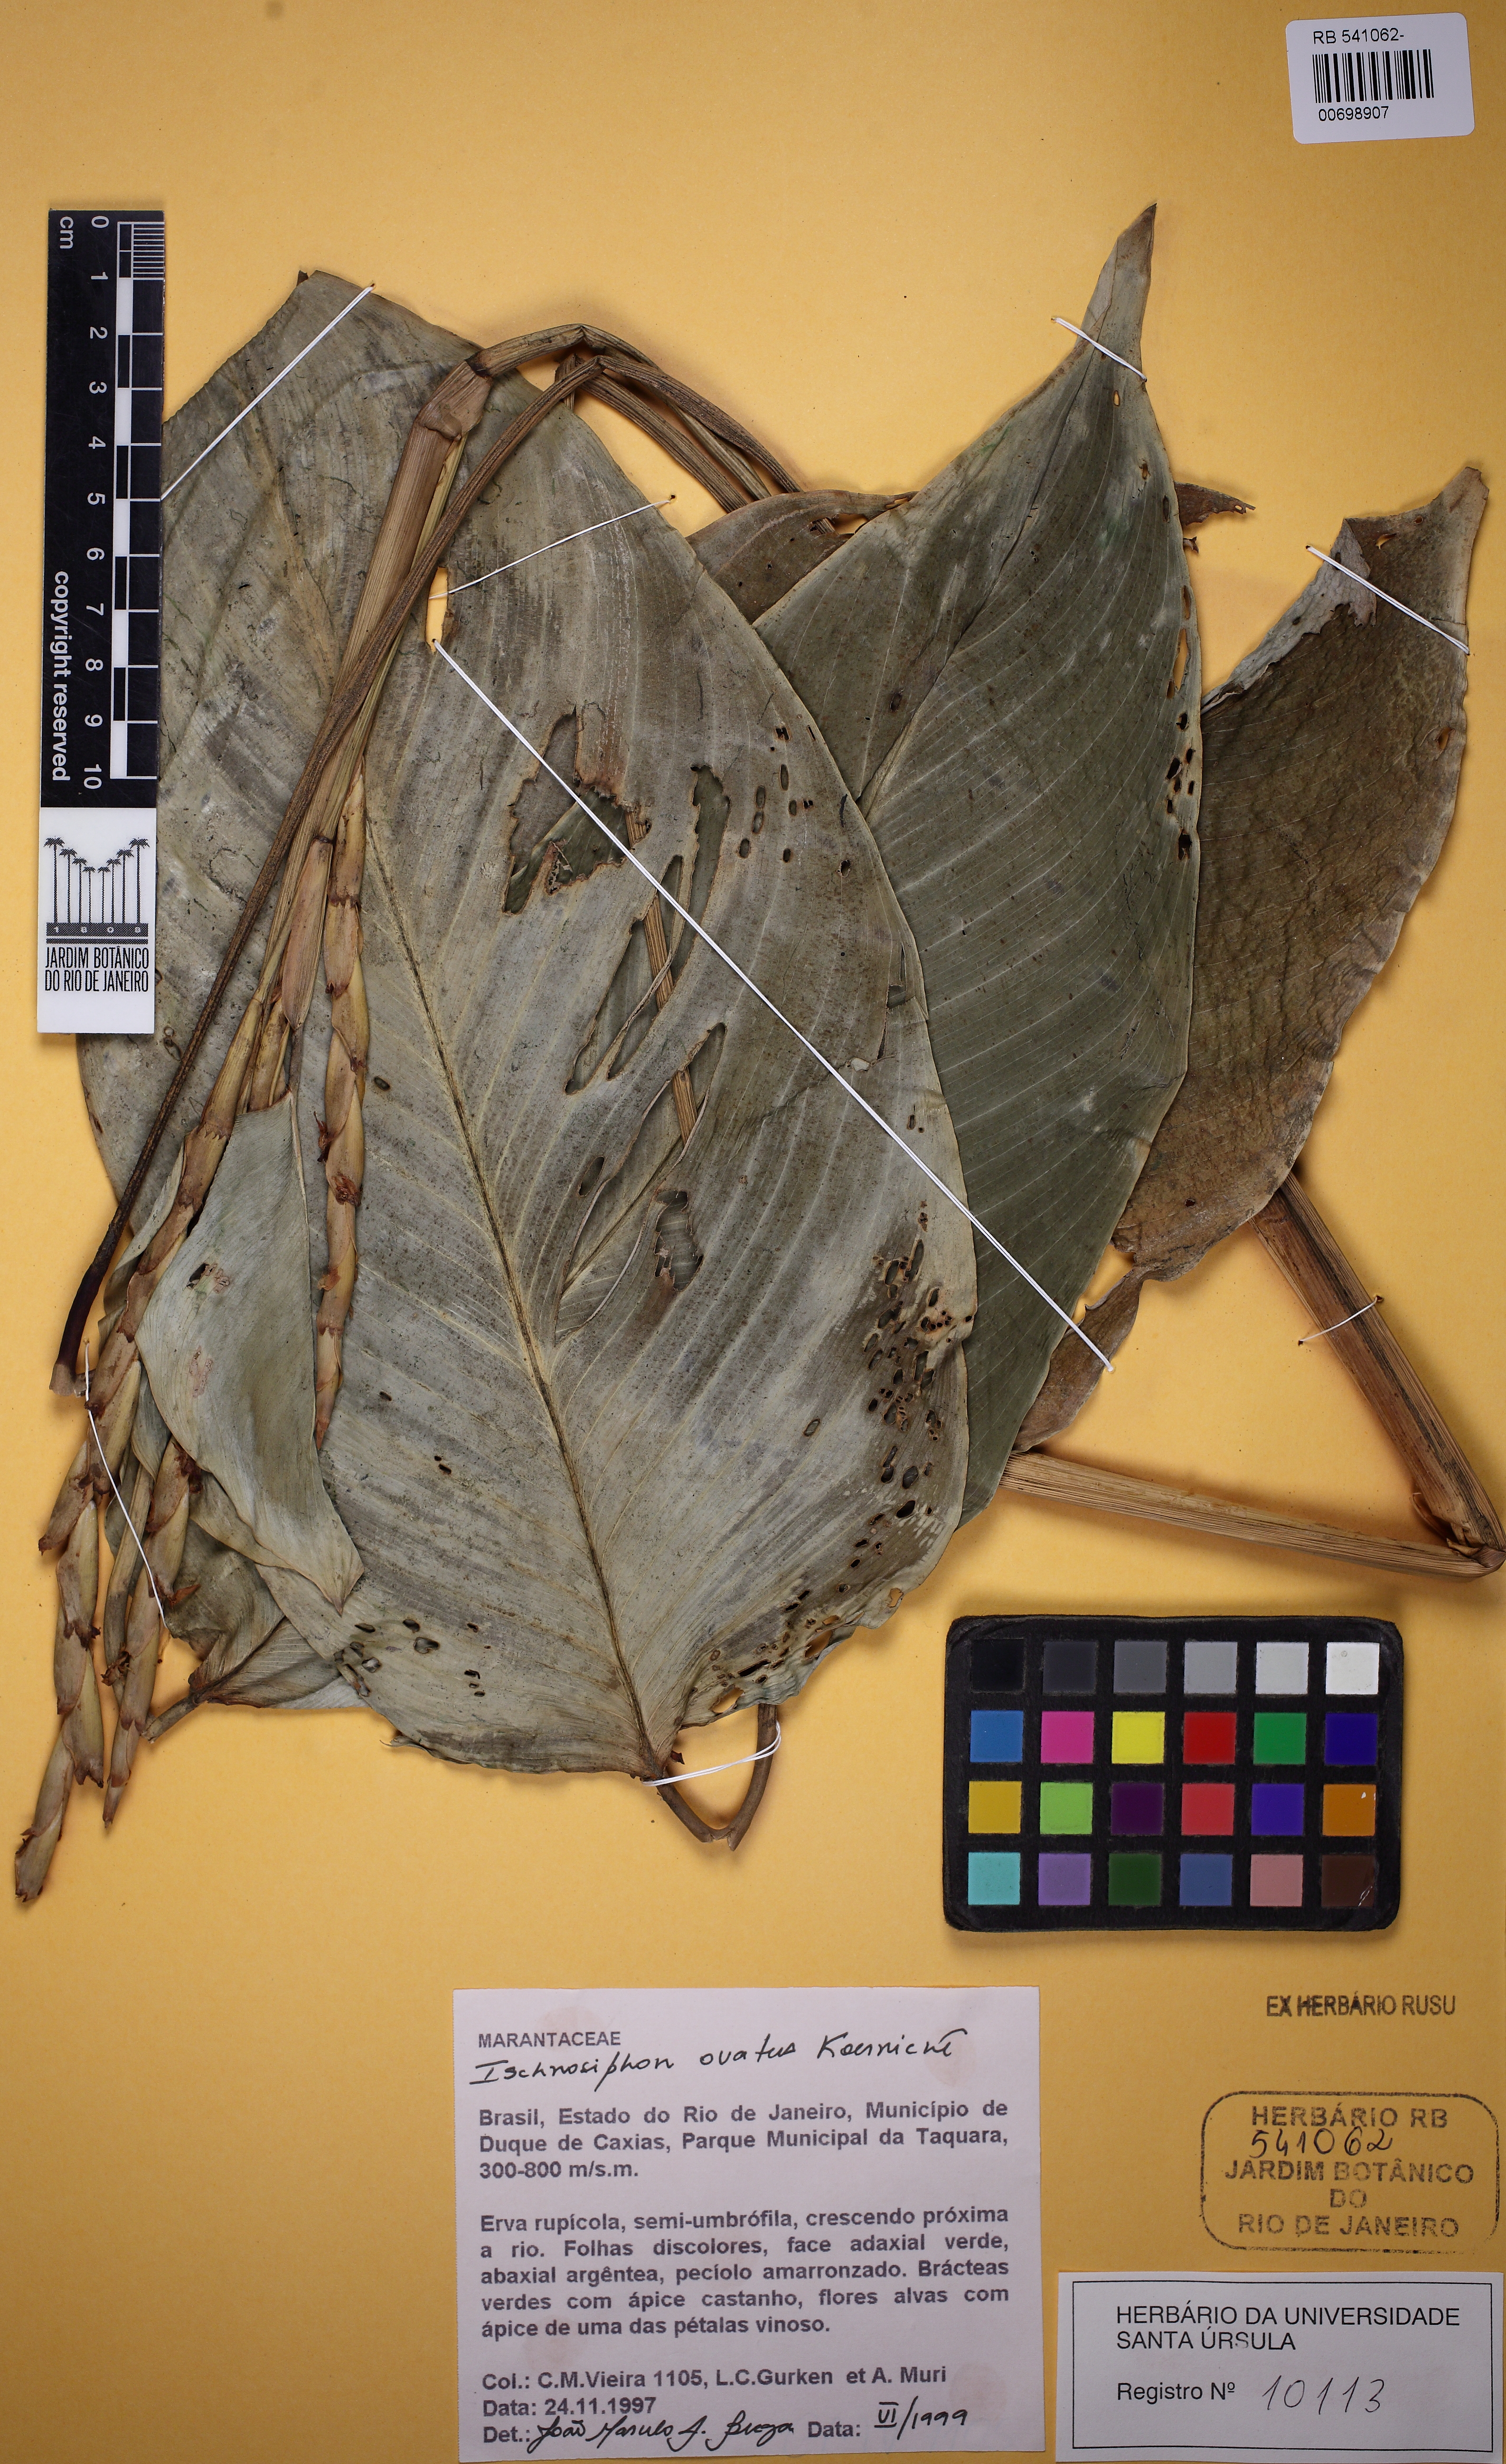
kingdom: Plantae
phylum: Tracheophyta
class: Liliopsida
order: Zingiberales
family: Marantaceae
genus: Ischnosiphon
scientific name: Ischnosiphon ovatus
